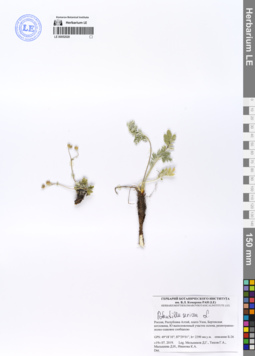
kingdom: Plantae
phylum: Tracheophyta
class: Magnoliopsida
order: Rosales
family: Rosaceae
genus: Potentilla
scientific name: Potentilla sericea
